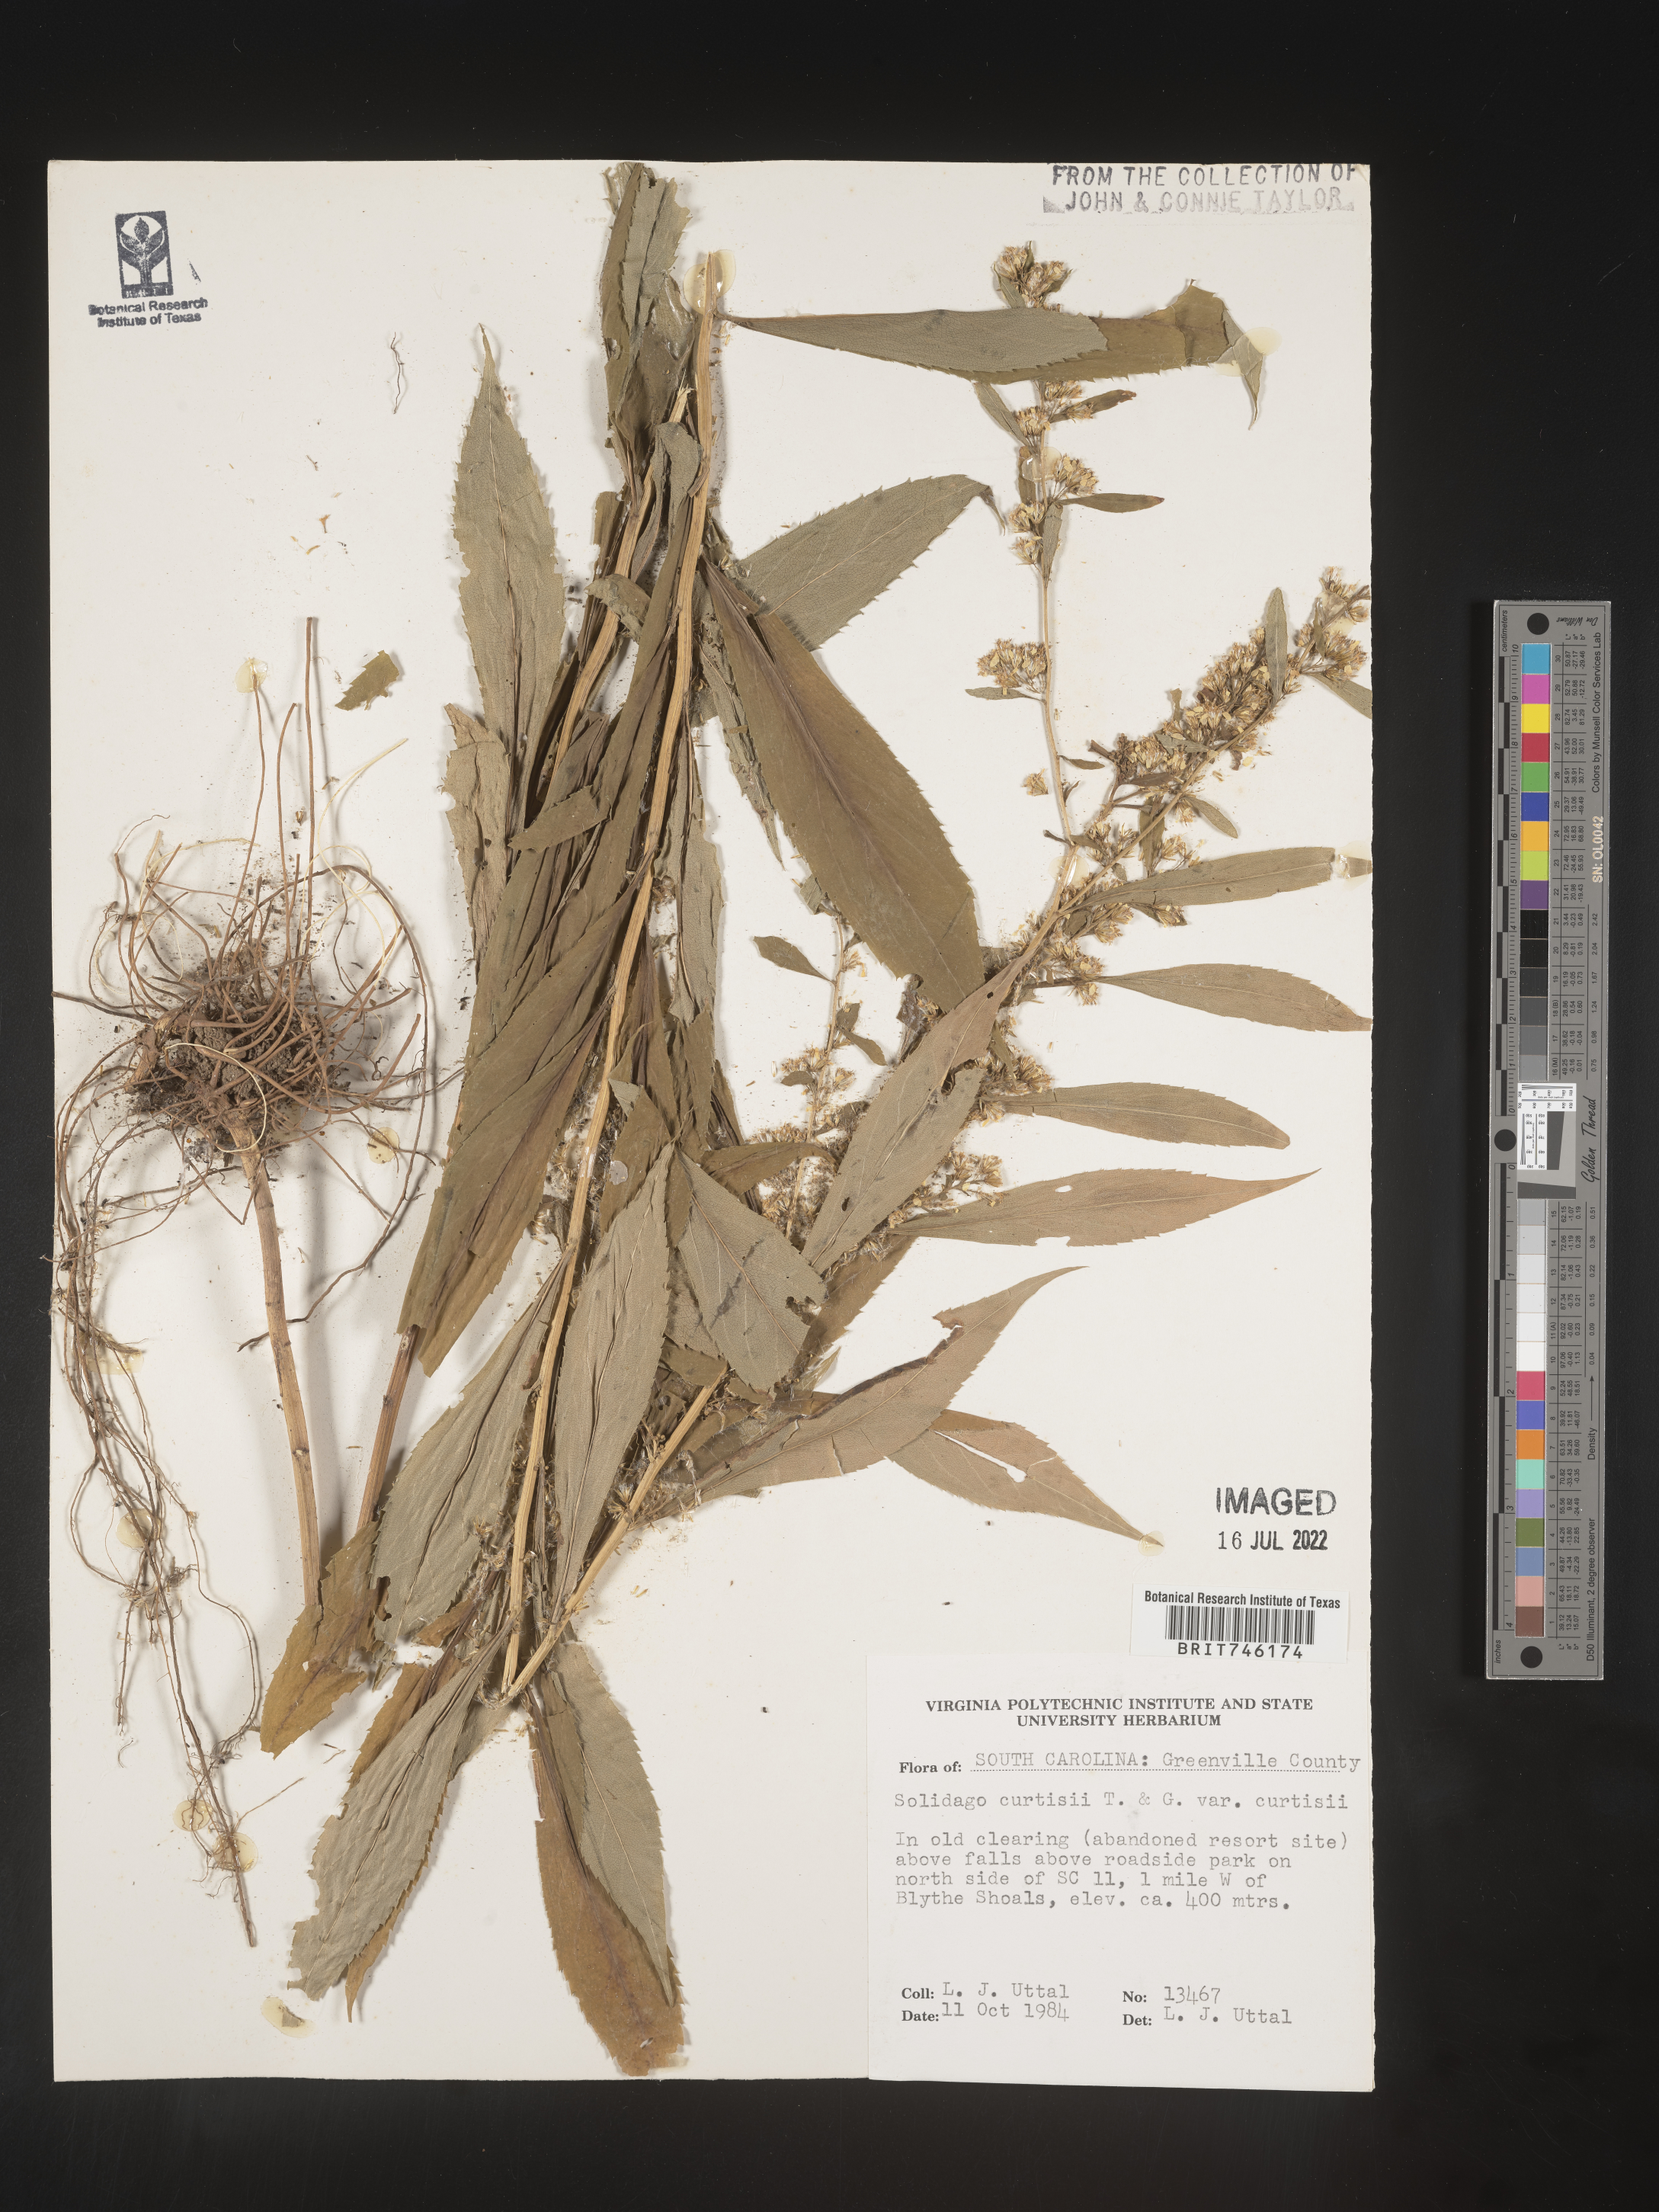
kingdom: Plantae
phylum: Tracheophyta
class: Magnoliopsida
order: Asterales
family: Asteraceae
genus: Solidago
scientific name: Solidago curtisii
